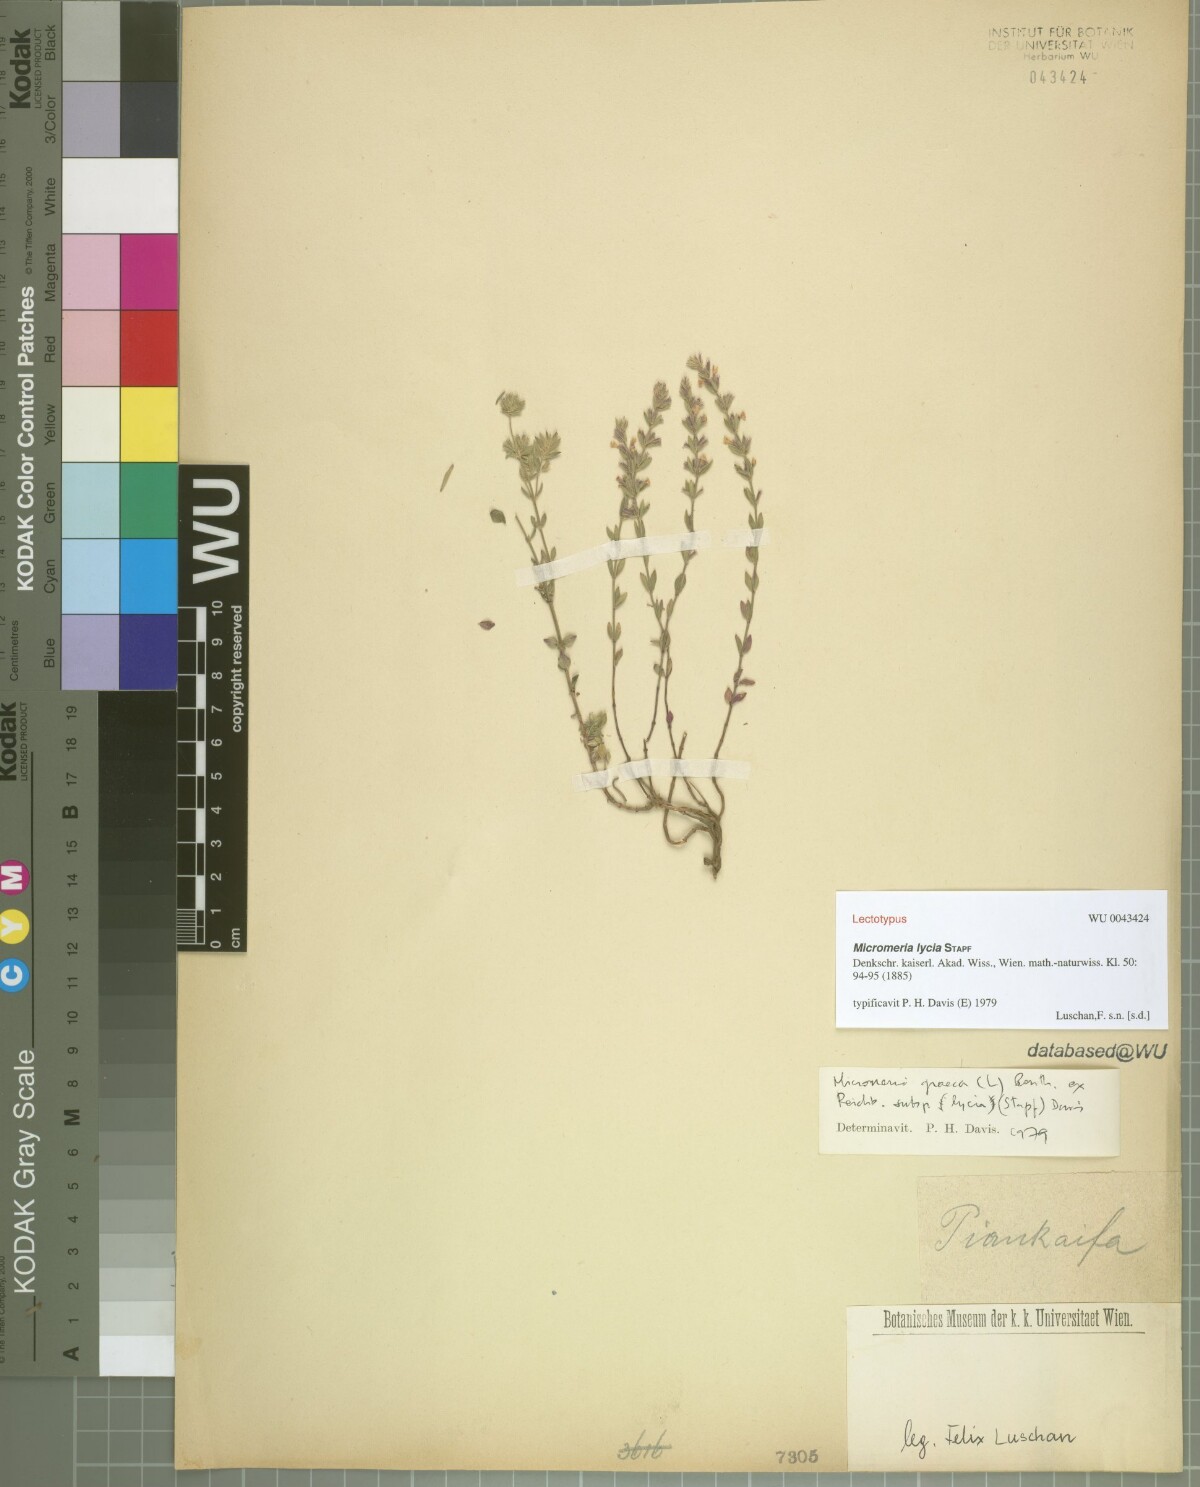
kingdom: Plantae
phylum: Tracheophyta
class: Magnoliopsida
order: Lamiales
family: Lamiaceae
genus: Micromeria
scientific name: Micromeria myrtifolia
